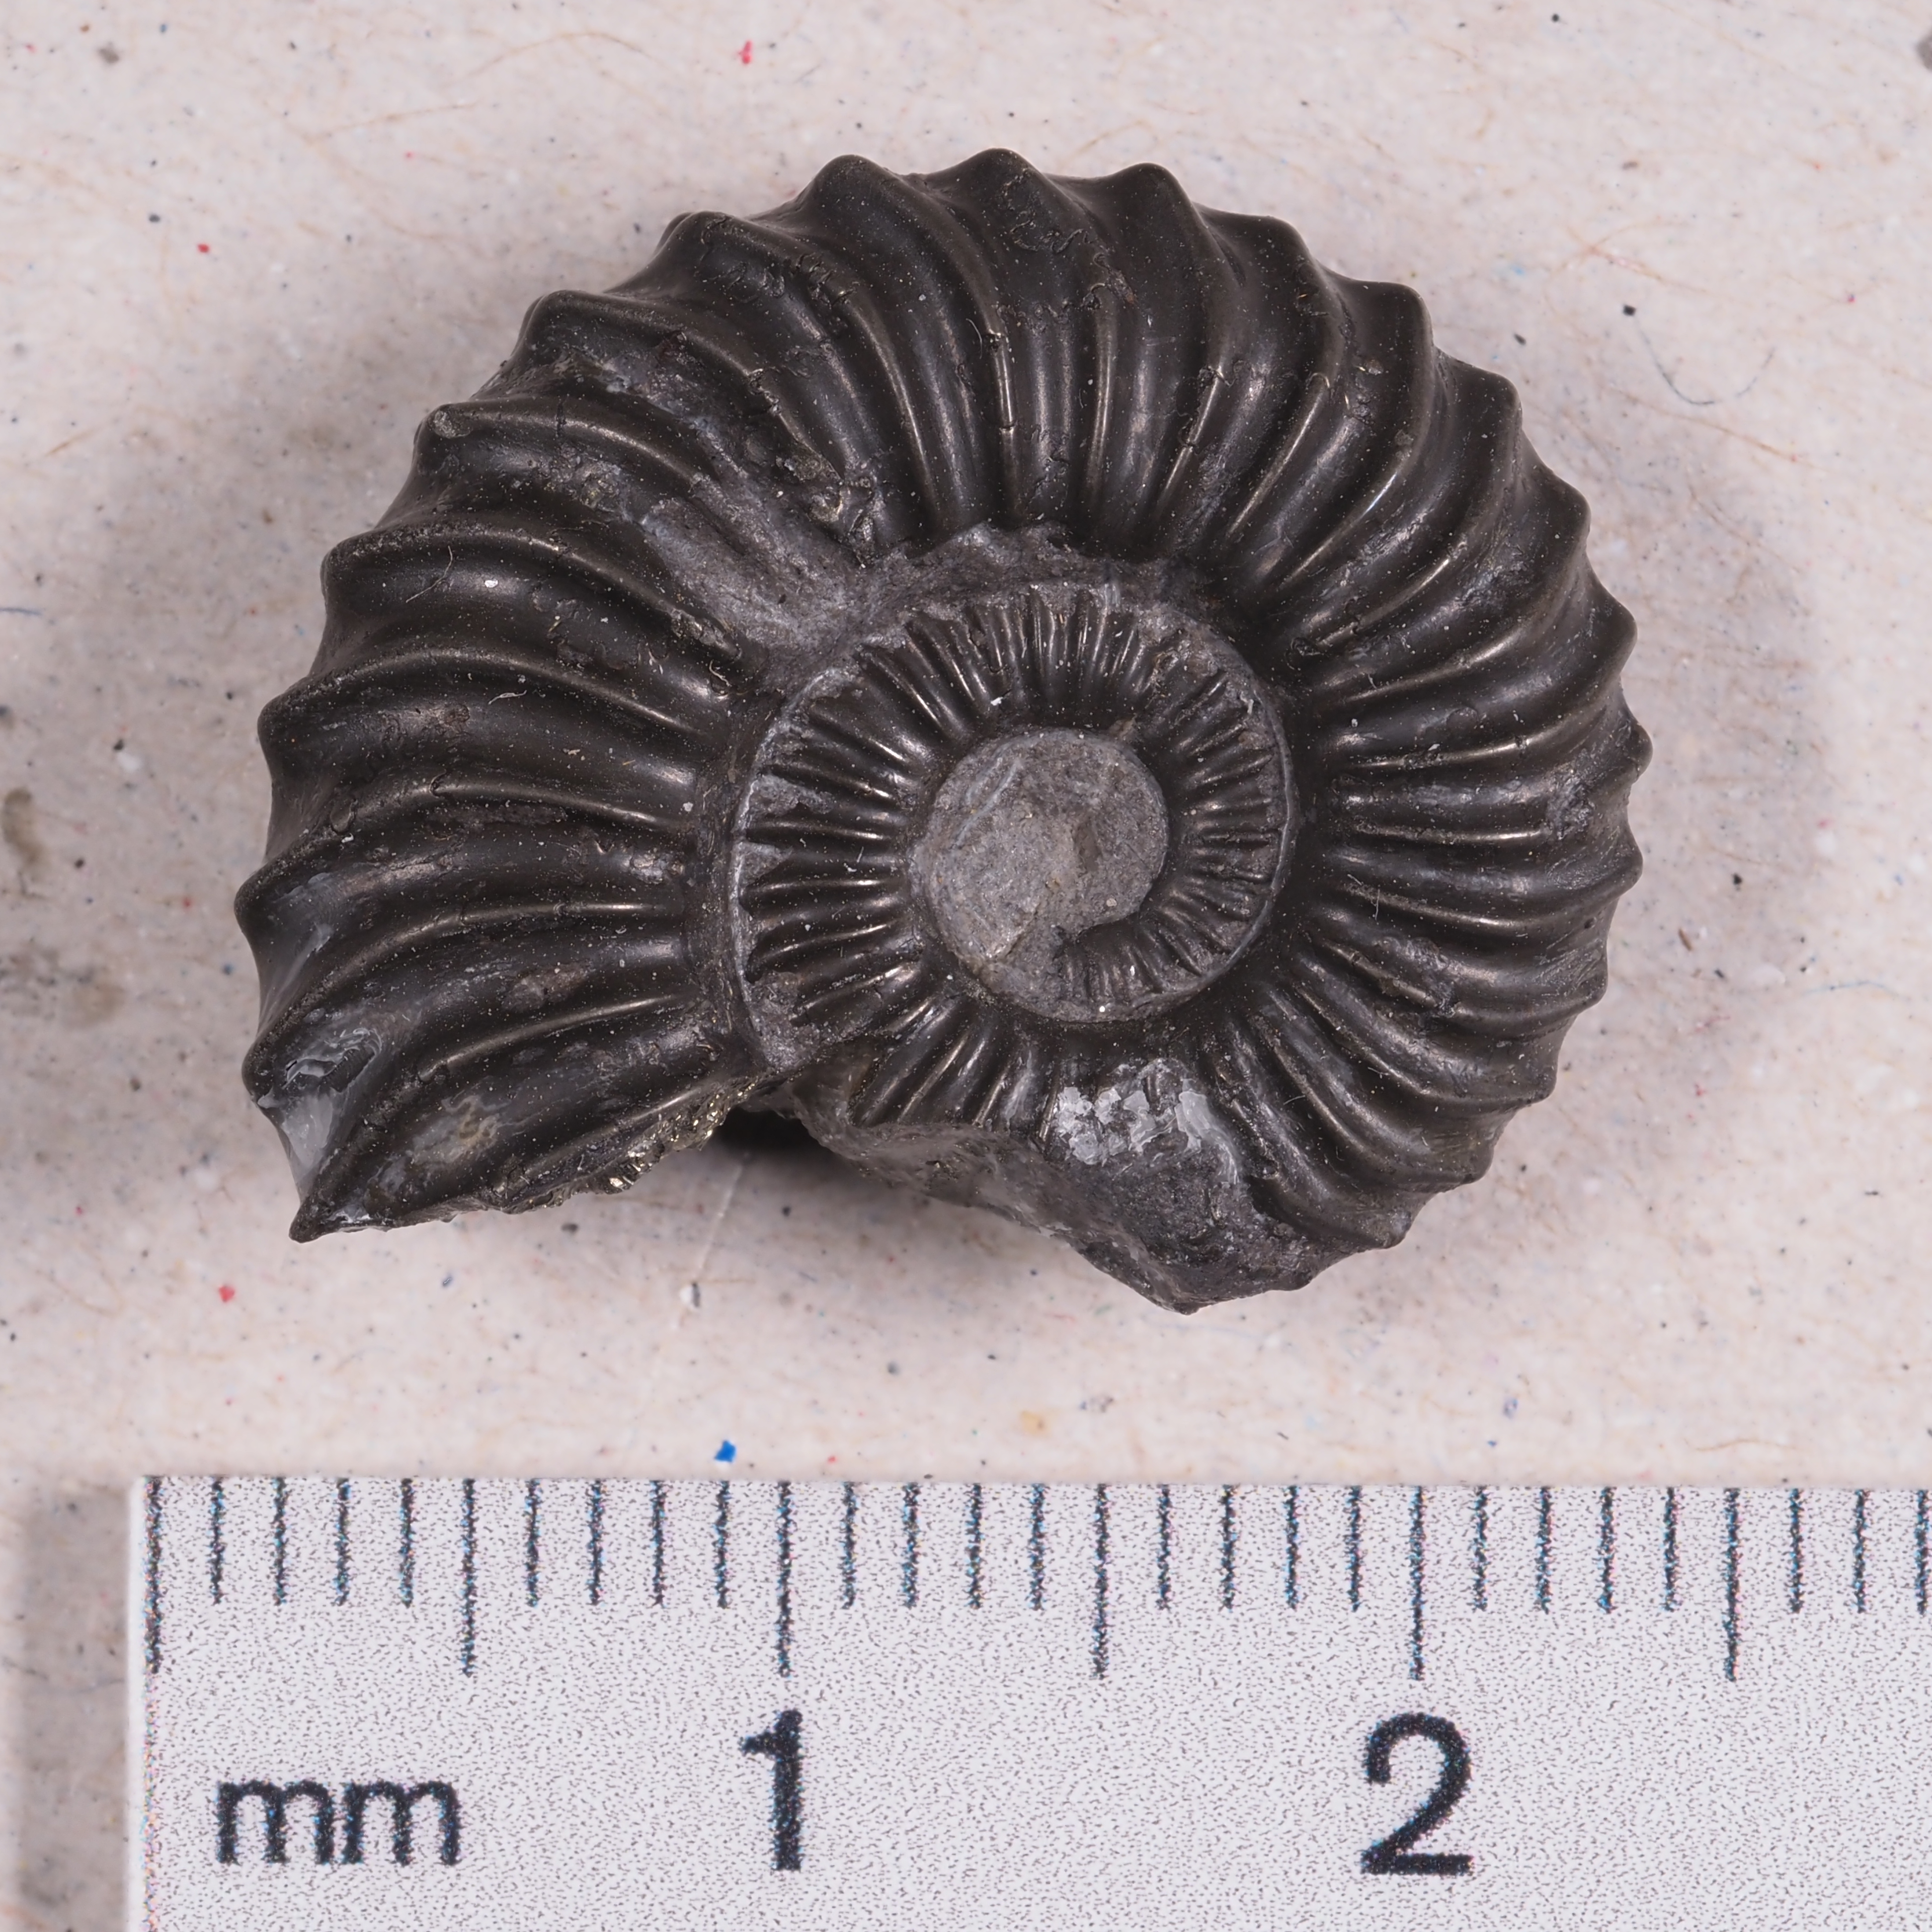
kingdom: Animalia
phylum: Mollusca
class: Cephalopoda
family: Schlotheimiidae
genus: Waehneroceras
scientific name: Waehneroceras
